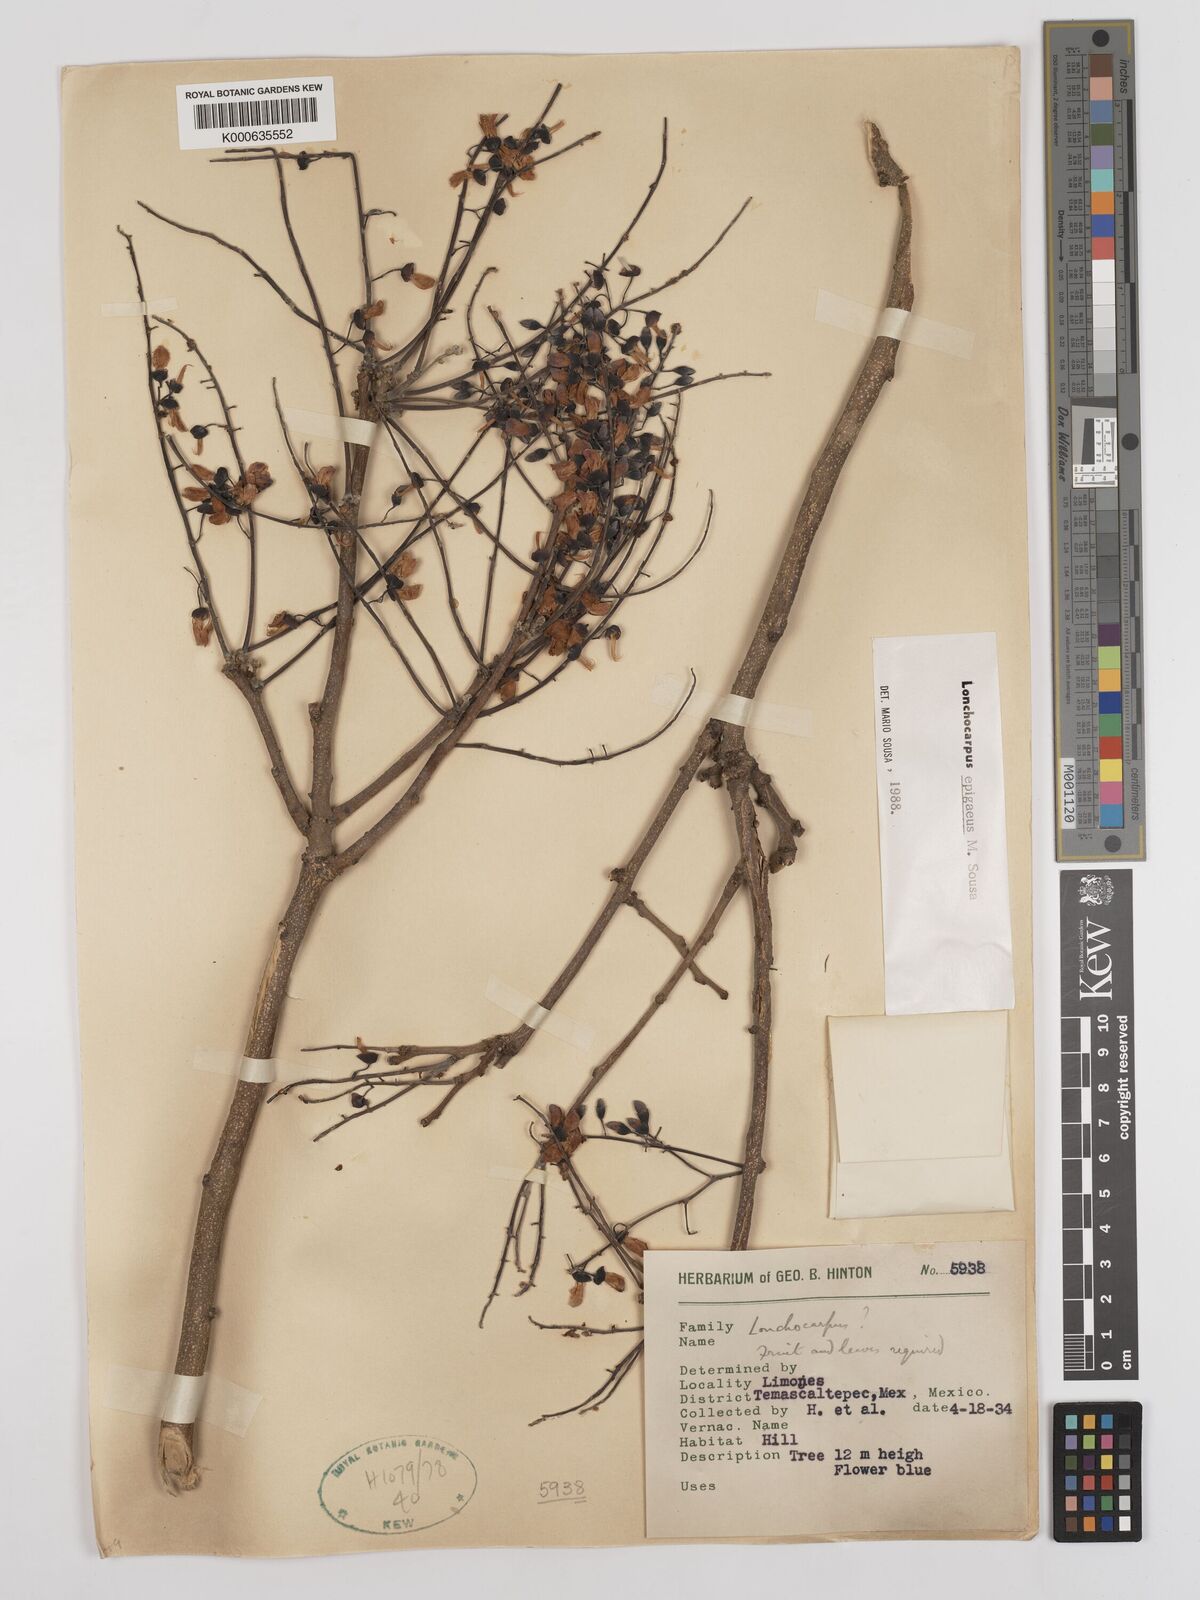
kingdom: Plantae
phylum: Tracheophyta
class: Magnoliopsida
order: Fabales
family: Fabaceae
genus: Lonchocarpus
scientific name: Lonchocarpus epigaeus
